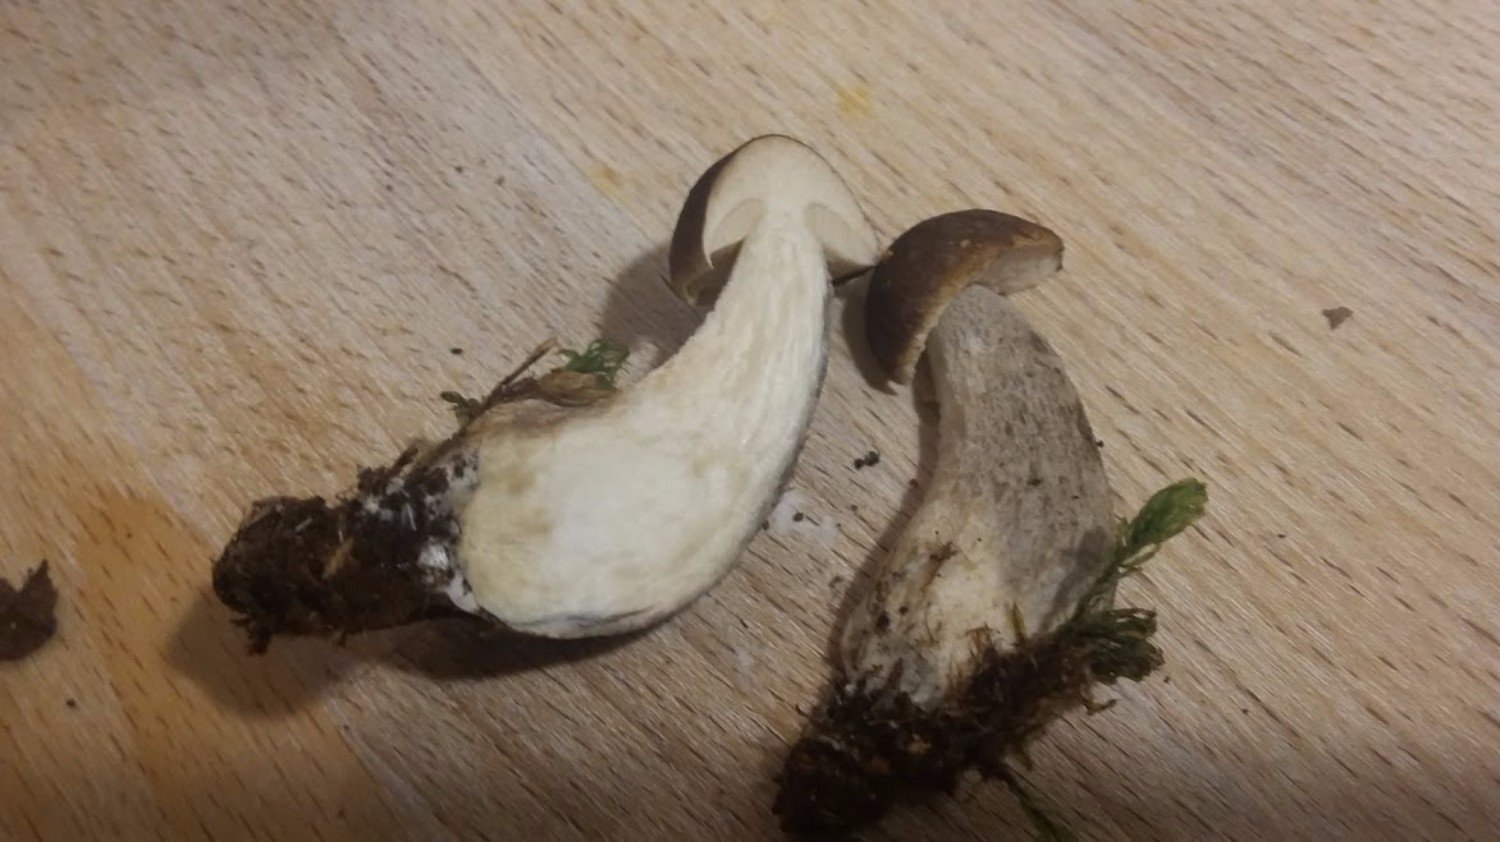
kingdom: Fungi
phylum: Basidiomycota
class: Agaricomycetes
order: Boletales
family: Boletaceae
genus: Leccinum
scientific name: Leccinum
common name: skælrørhat
